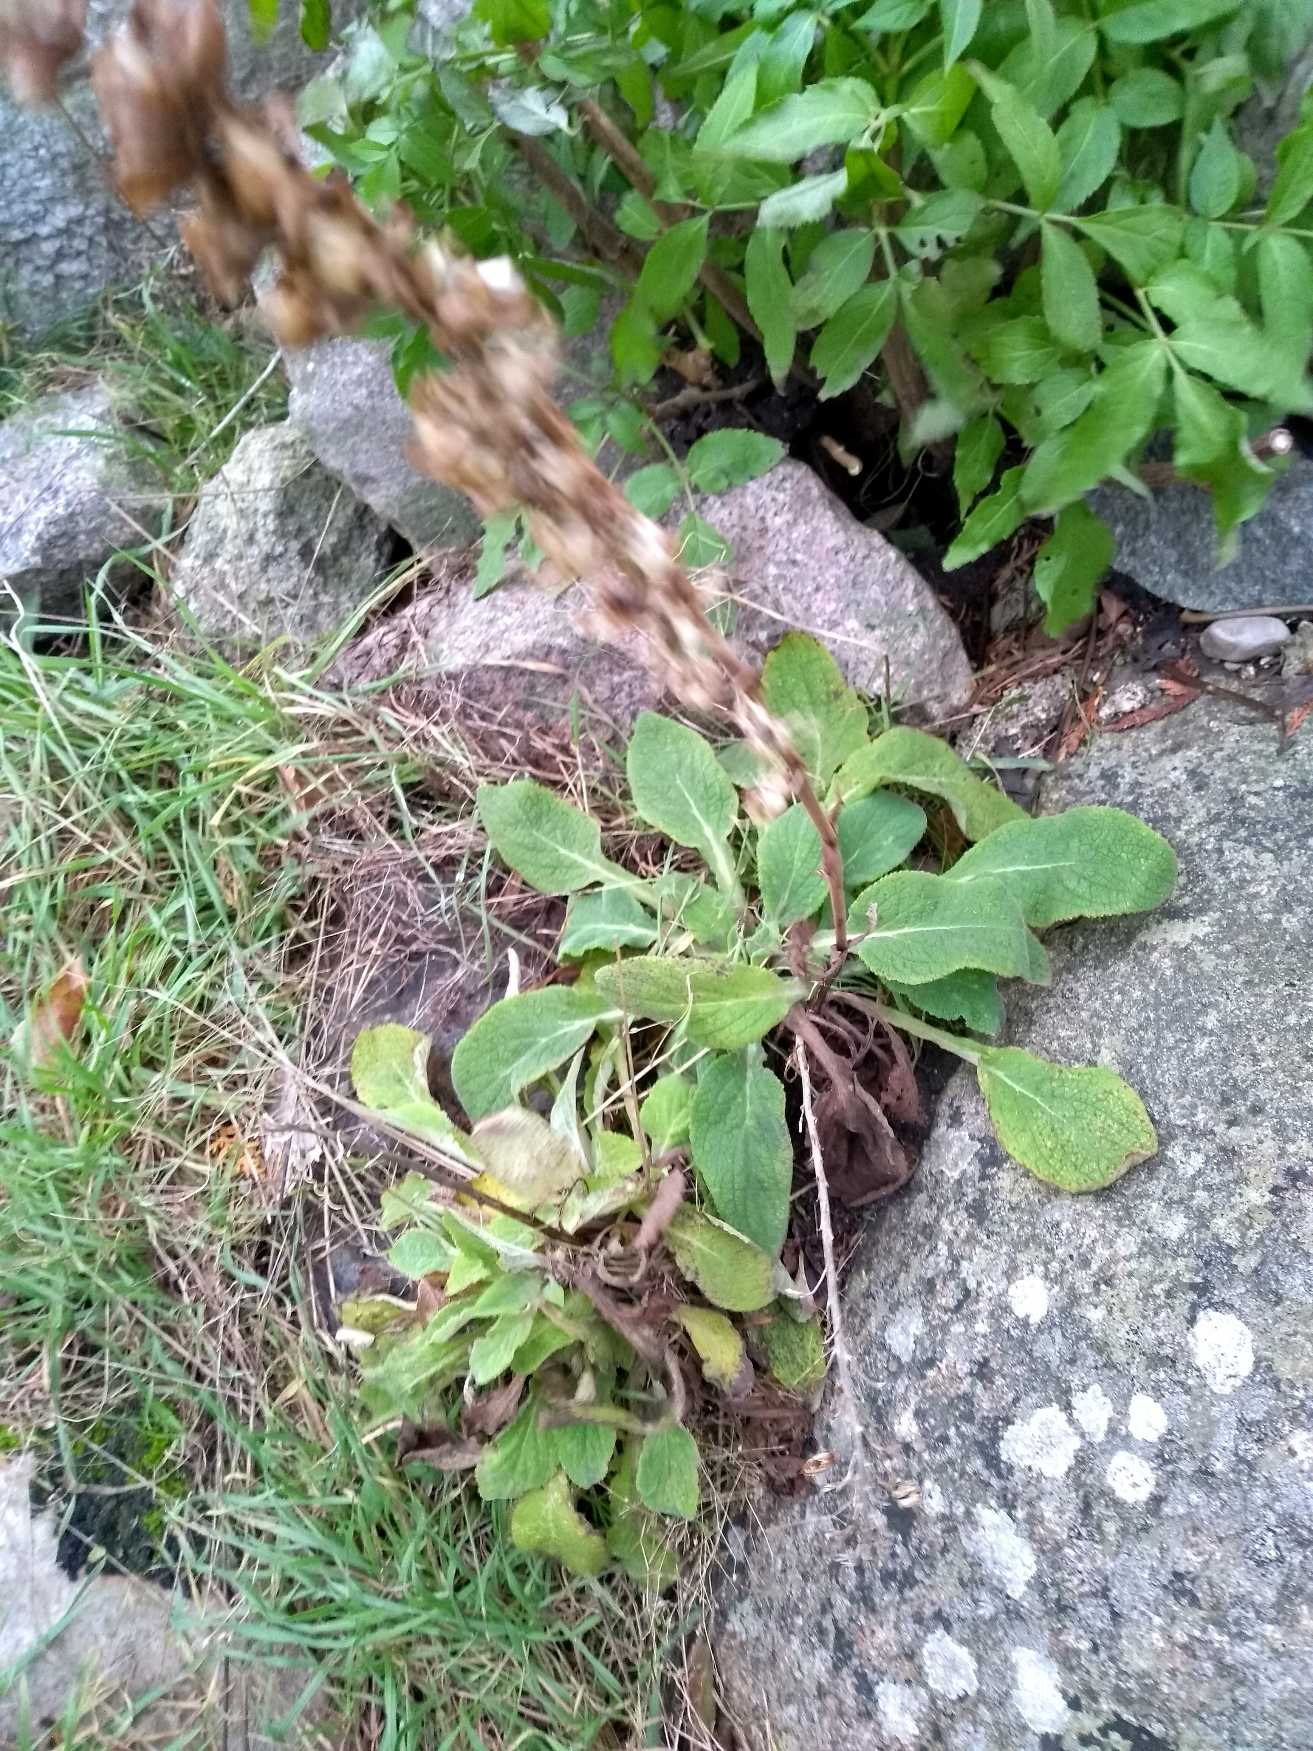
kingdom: Plantae
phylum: Tracheophyta
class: Magnoliopsida
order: Lamiales
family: Plantaginaceae
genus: Digitalis
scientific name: Digitalis purpurea
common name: Almindelig fingerbøl
